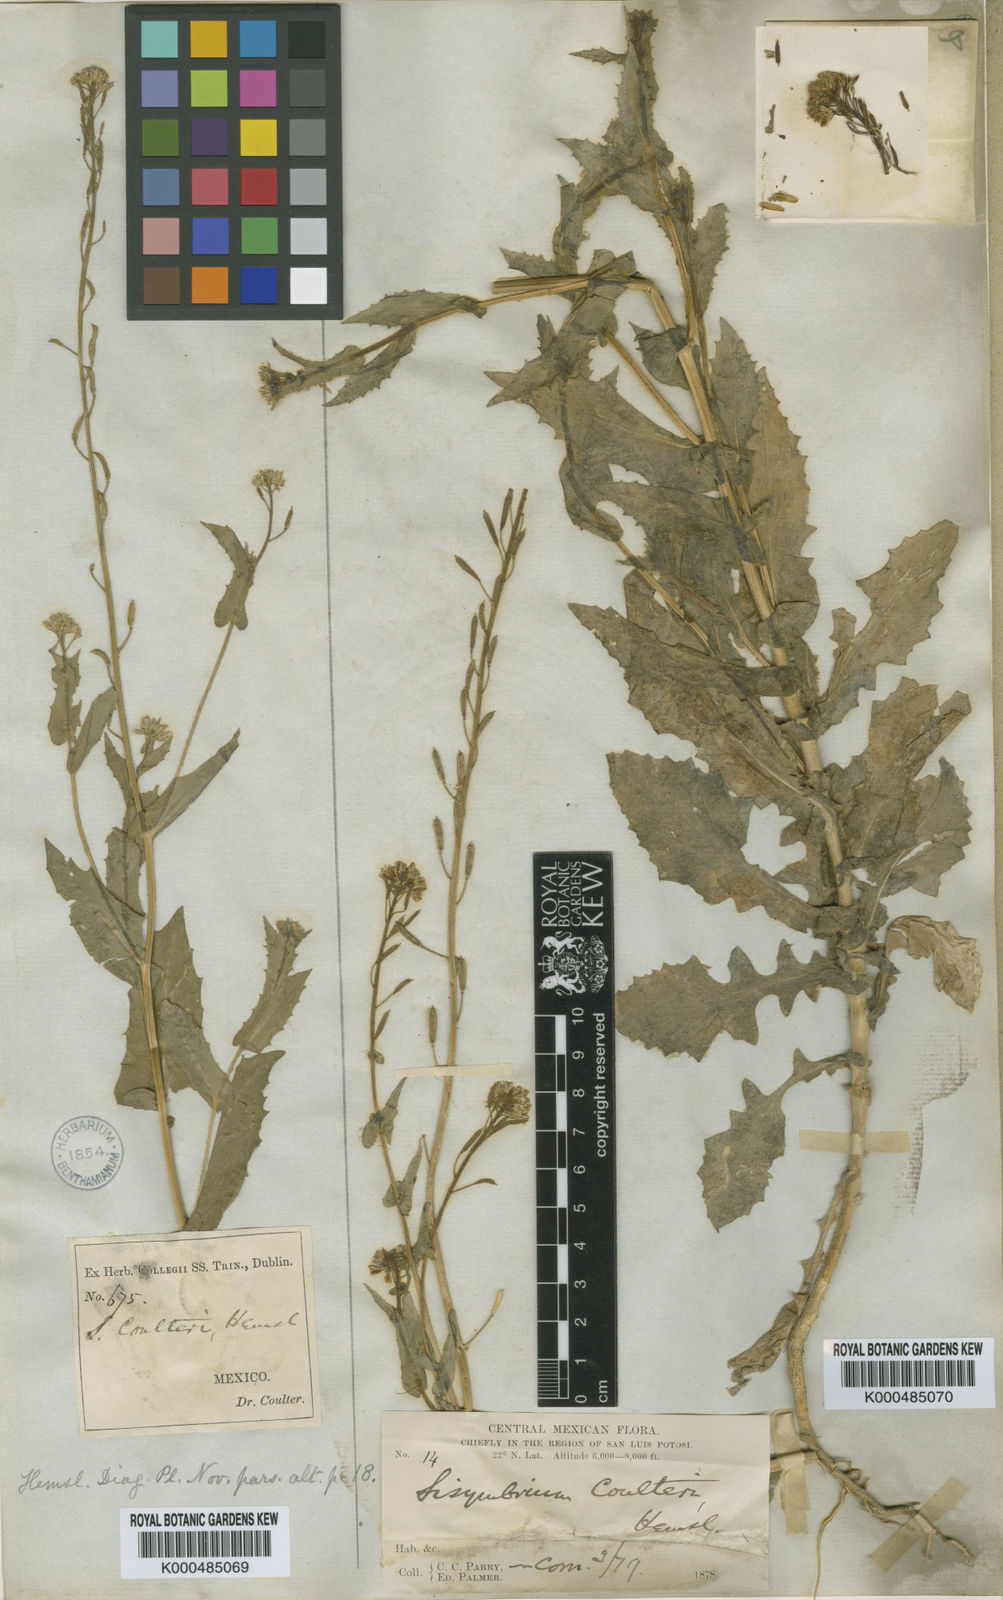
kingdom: Plantae
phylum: Tracheophyta
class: Magnoliopsida
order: Brassicales
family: Brassicaceae
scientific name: Brassicaceae
